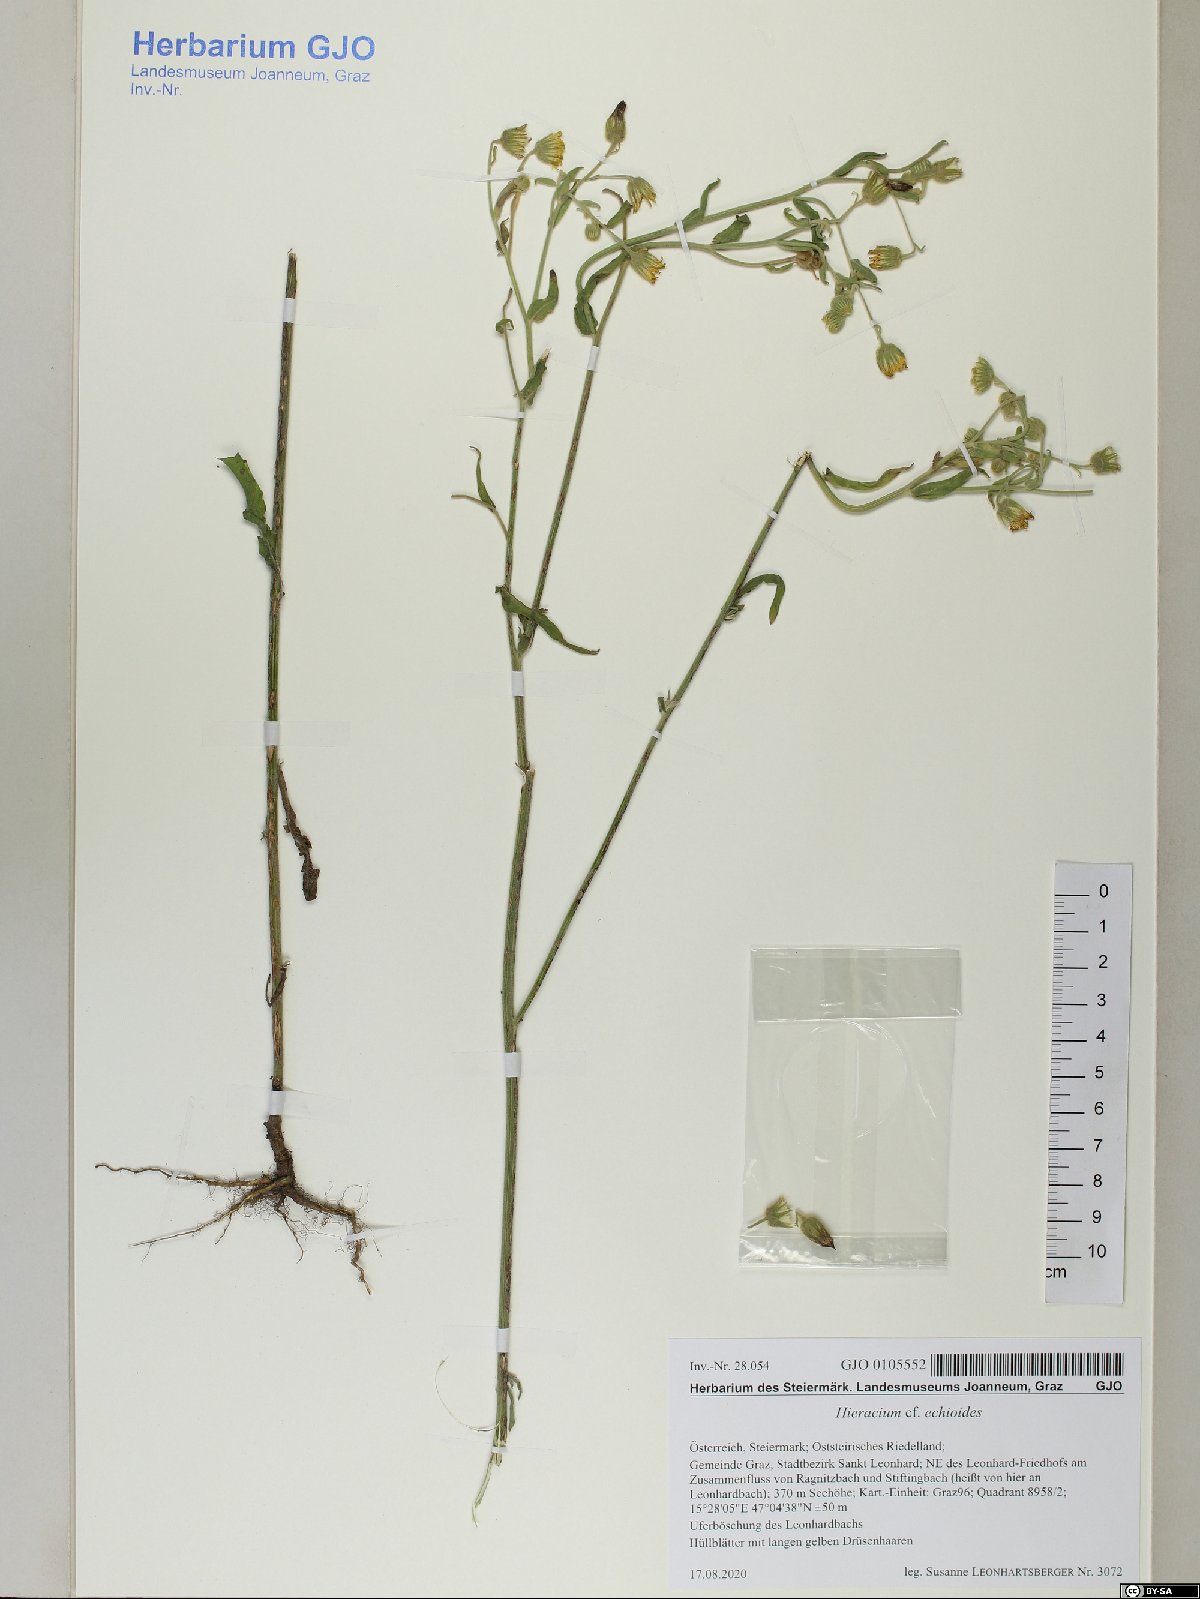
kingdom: Plantae
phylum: Tracheophyta
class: Magnoliopsida
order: Asterales
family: Asteraceae
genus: Pilosella
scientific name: Pilosella echioides
